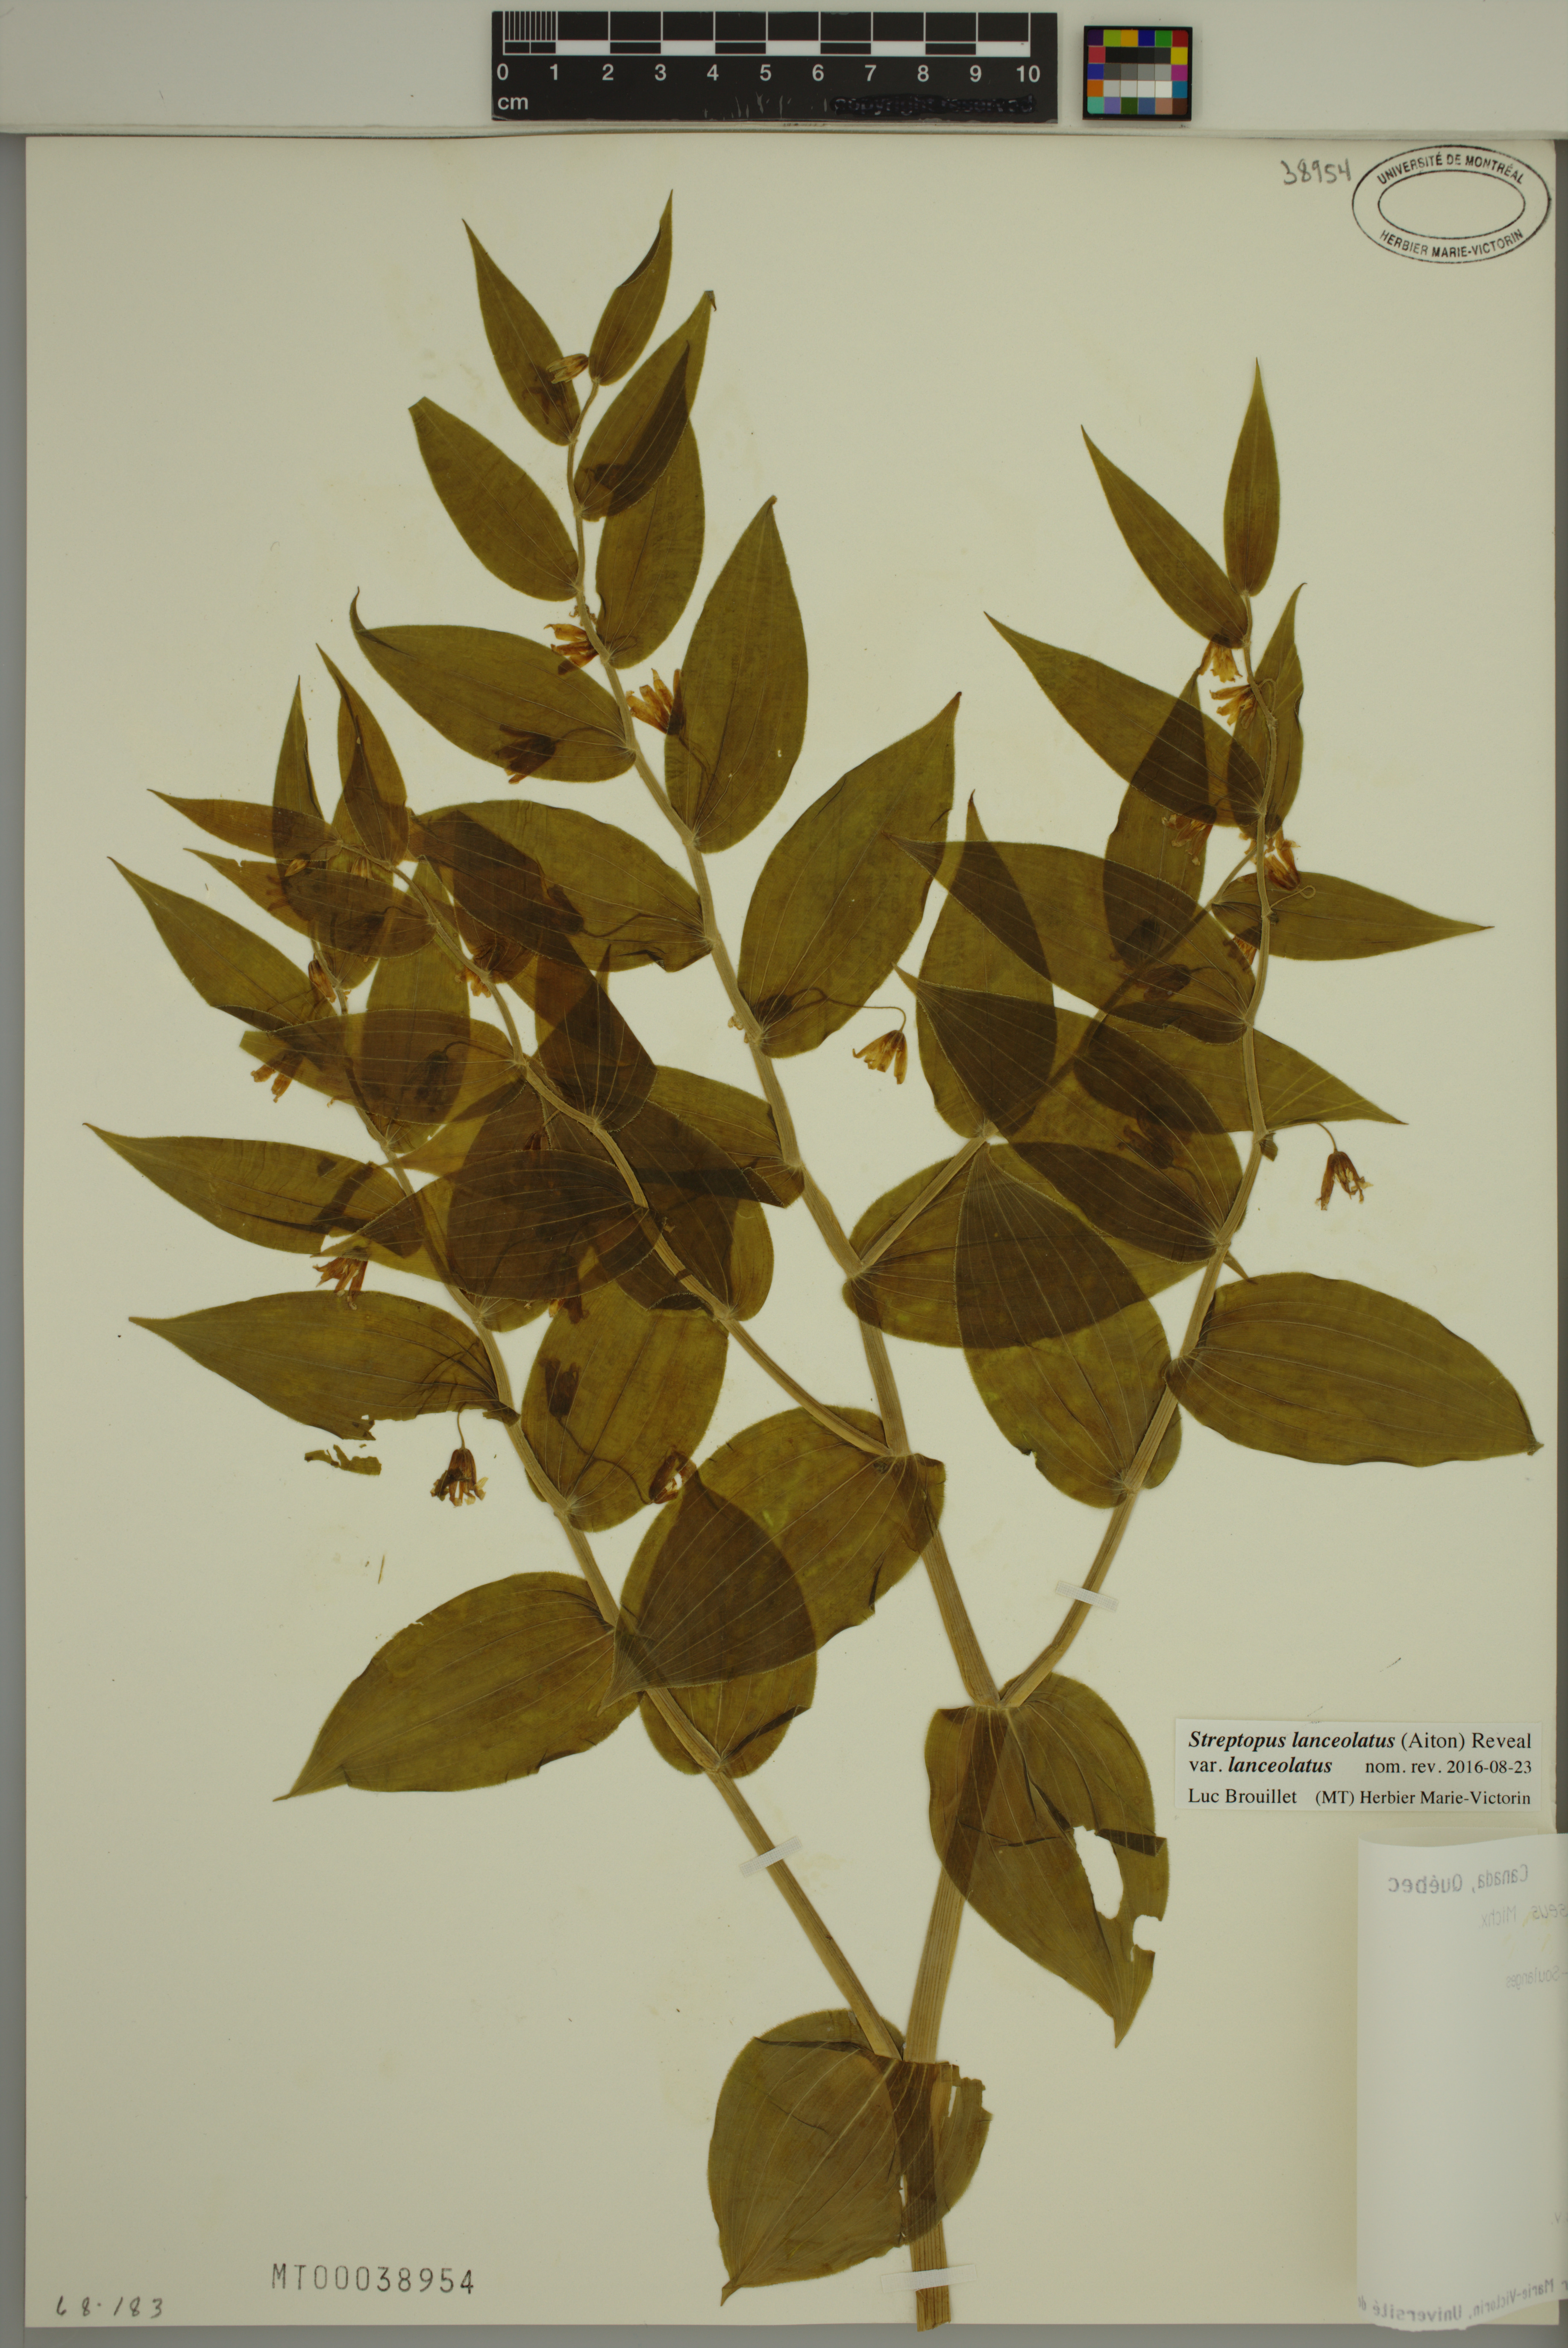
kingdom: Plantae
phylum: Tracheophyta
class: Liliopsida
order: Liliales
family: Liliaceae
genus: Streptopus
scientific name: Streptopus lanceolatus
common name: Rose mandarin
